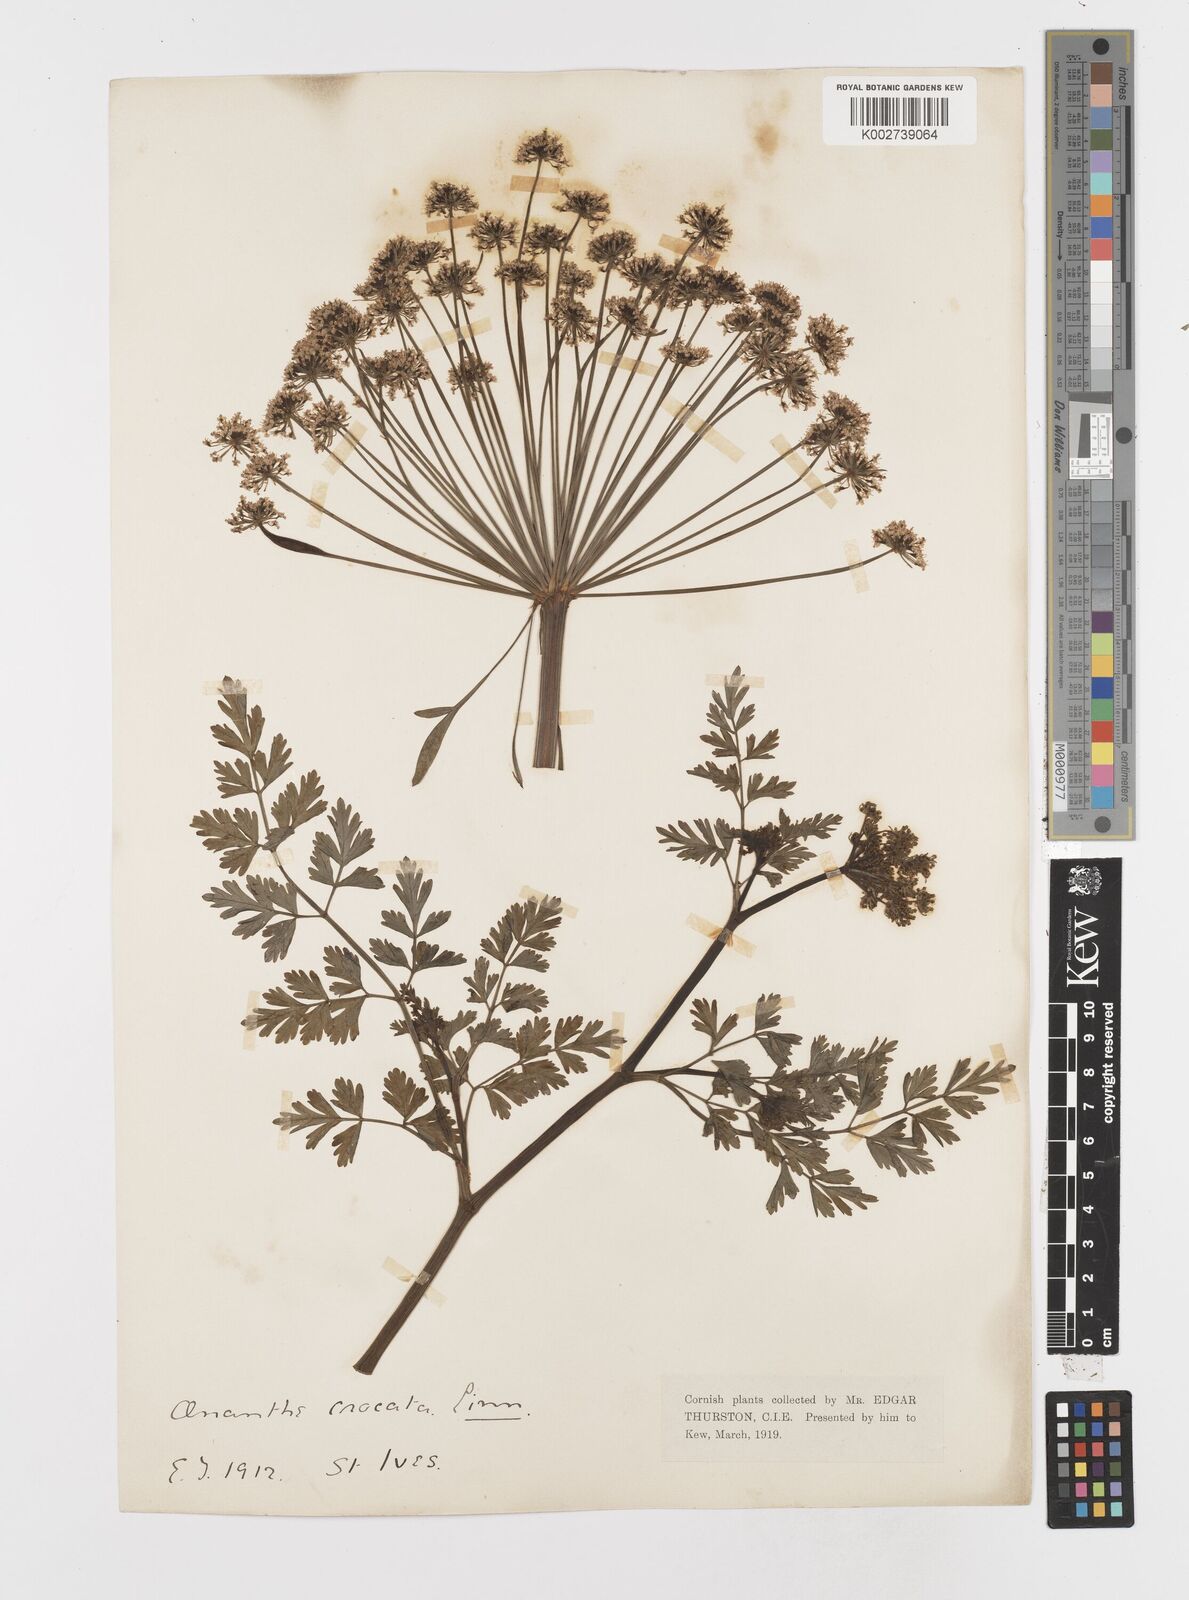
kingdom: Plantae
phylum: Tracheophyta
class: Magnoliopsida
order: Apiales
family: Apiaceae
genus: Oenanthe
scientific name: Oenanthe crocata
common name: Hemlock water-dropwort
